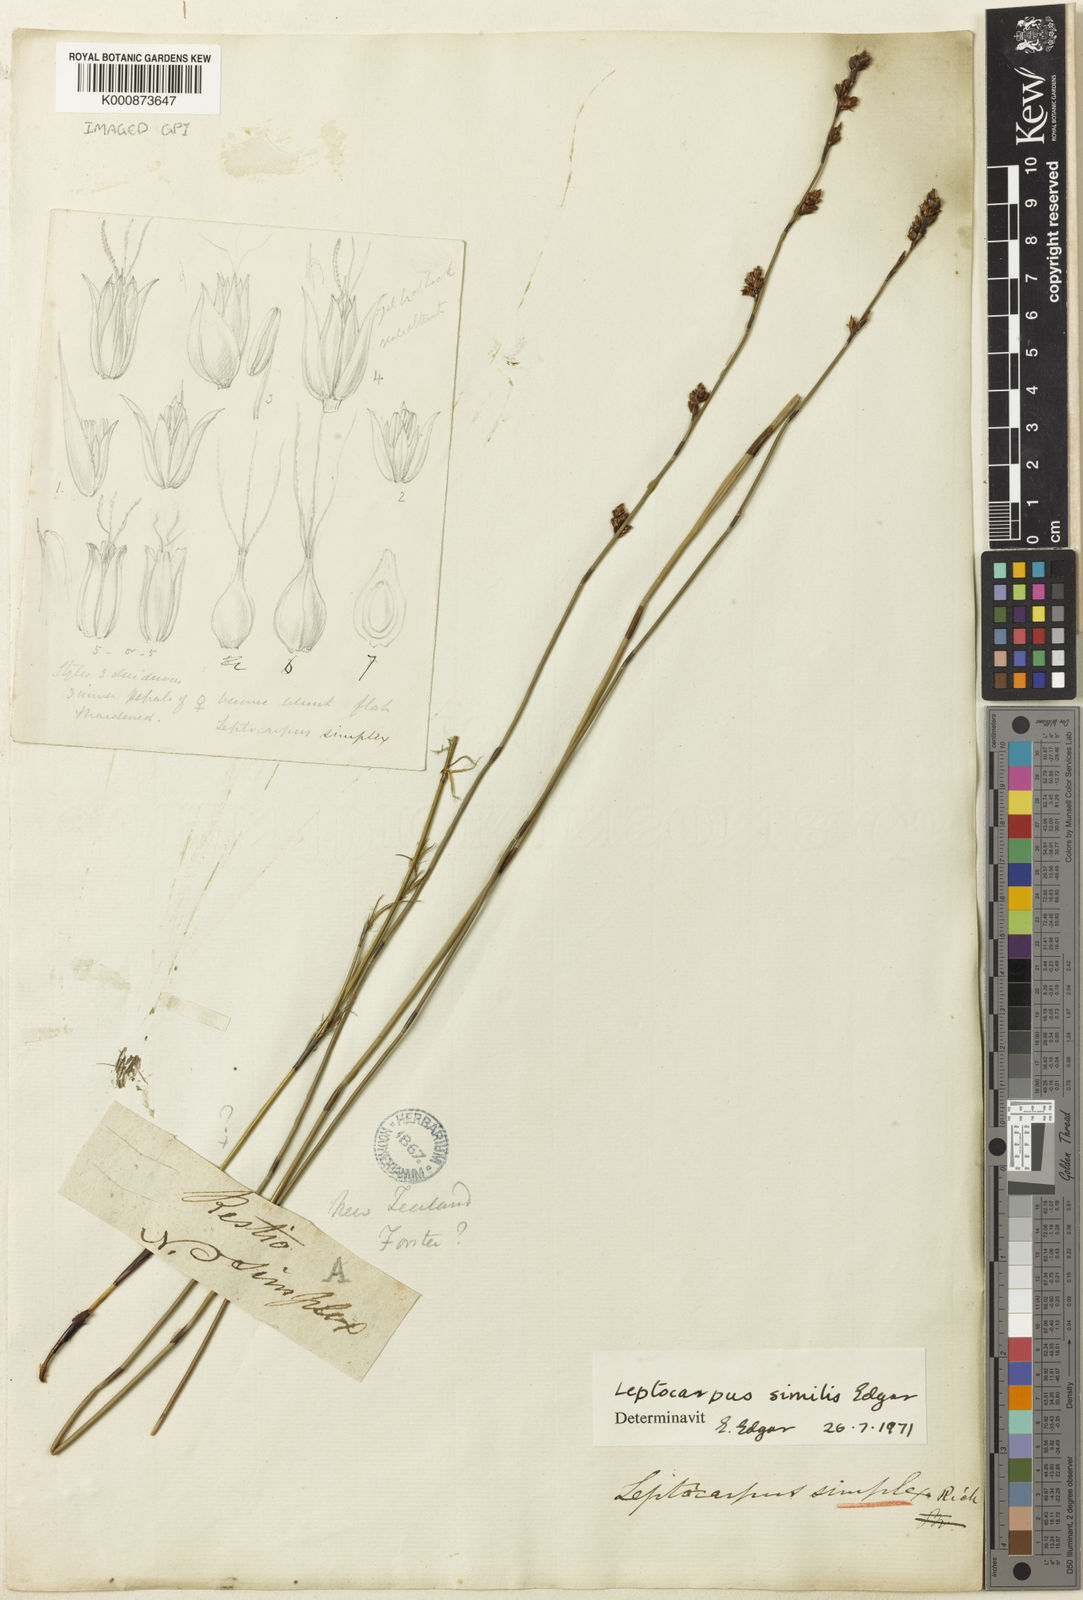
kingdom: Plantae
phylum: Tracheophyta
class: Liliopsida
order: Poales
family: Restionaceae
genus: Apodasmia
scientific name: Apodasmia similis
